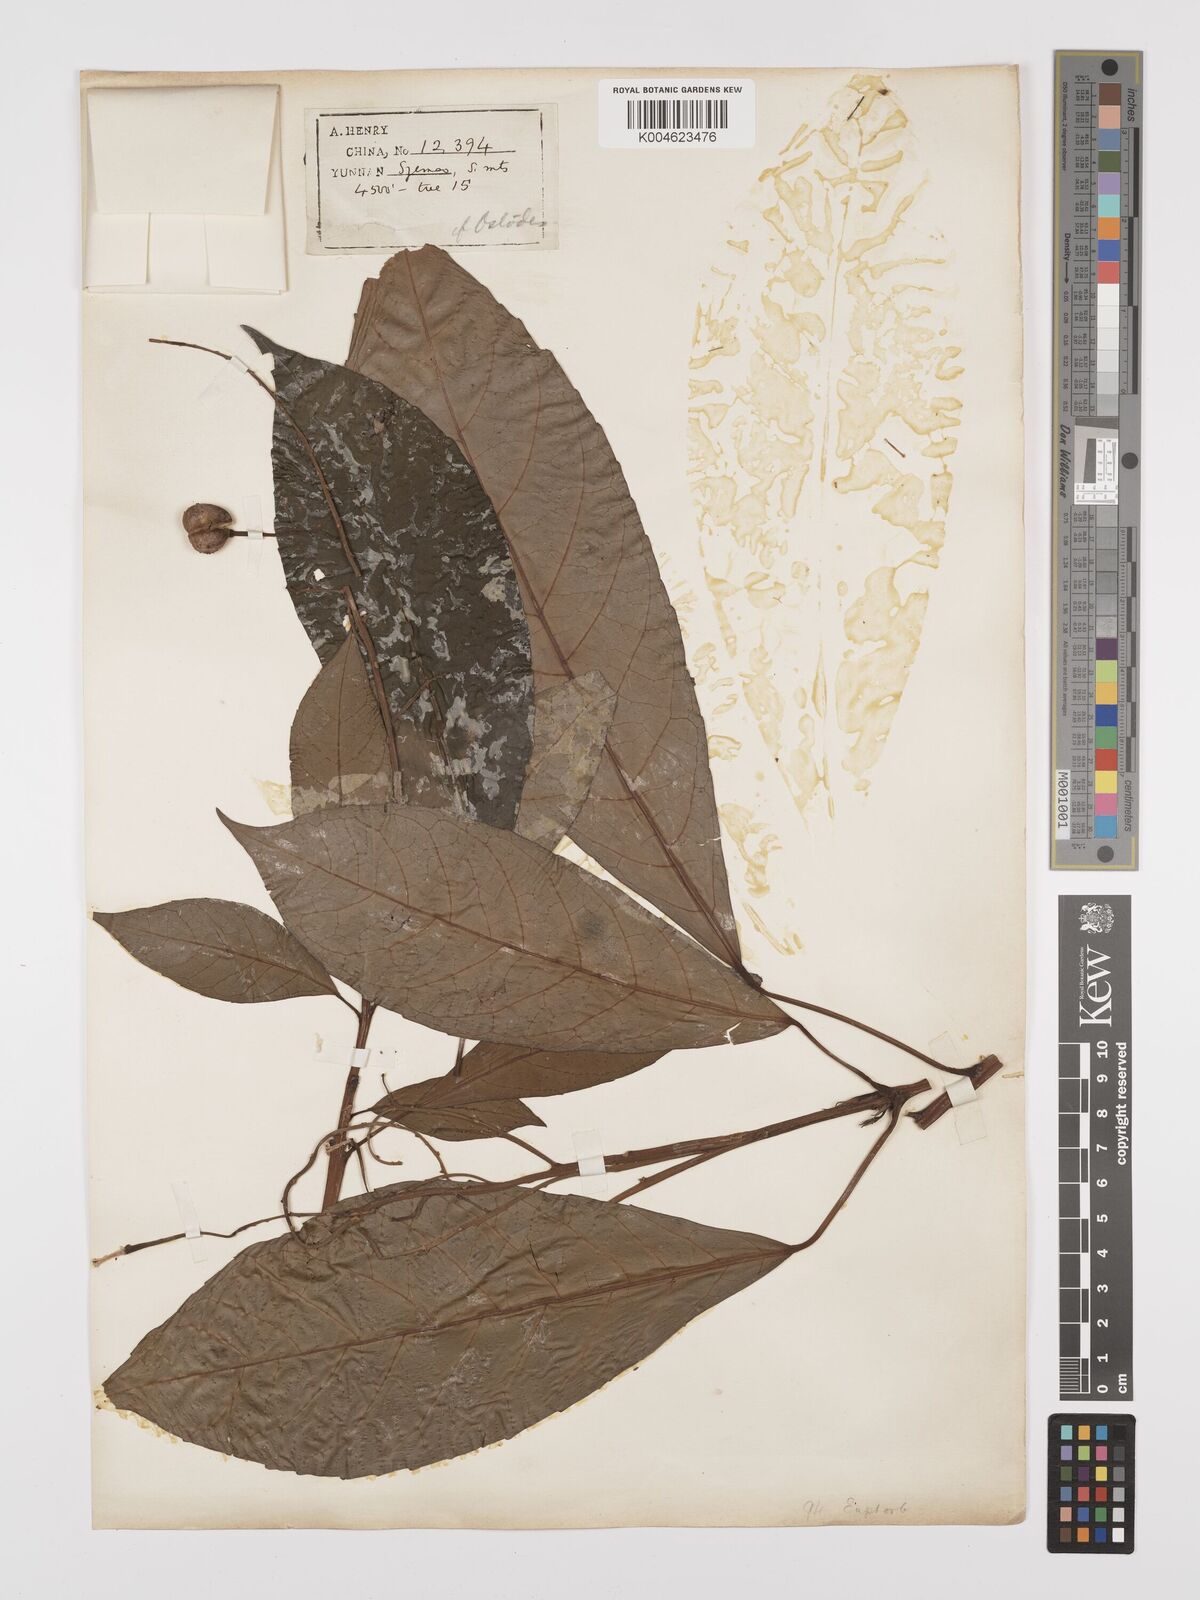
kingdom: Plantae
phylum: Tracheophyta
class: Magnoliopsida
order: Malpighiales
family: Euphorbiaceae
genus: Trigonostemon
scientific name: Trigonostemon xyphophylloides
